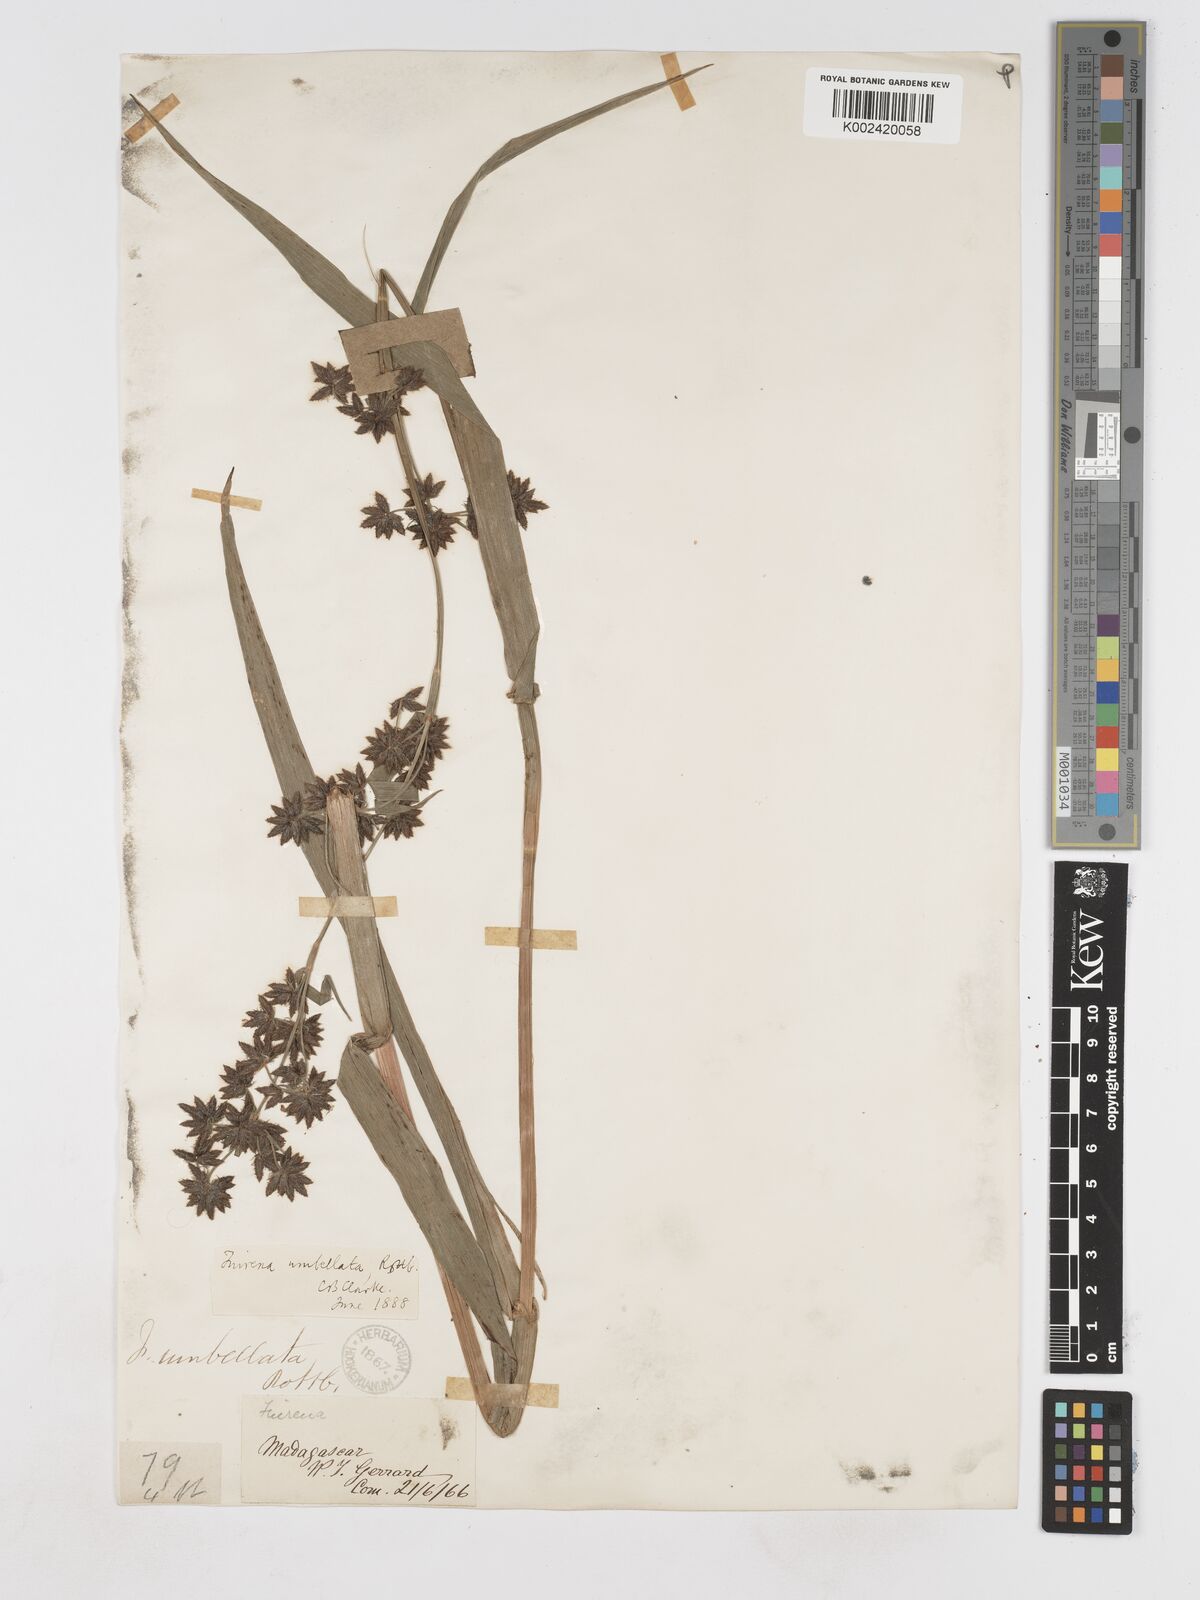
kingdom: Plantae
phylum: Tracheophyta
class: Liliopsida
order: Poales
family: Cyperaceae
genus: Fuirena
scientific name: Fuirena umbellata
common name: Yefen
